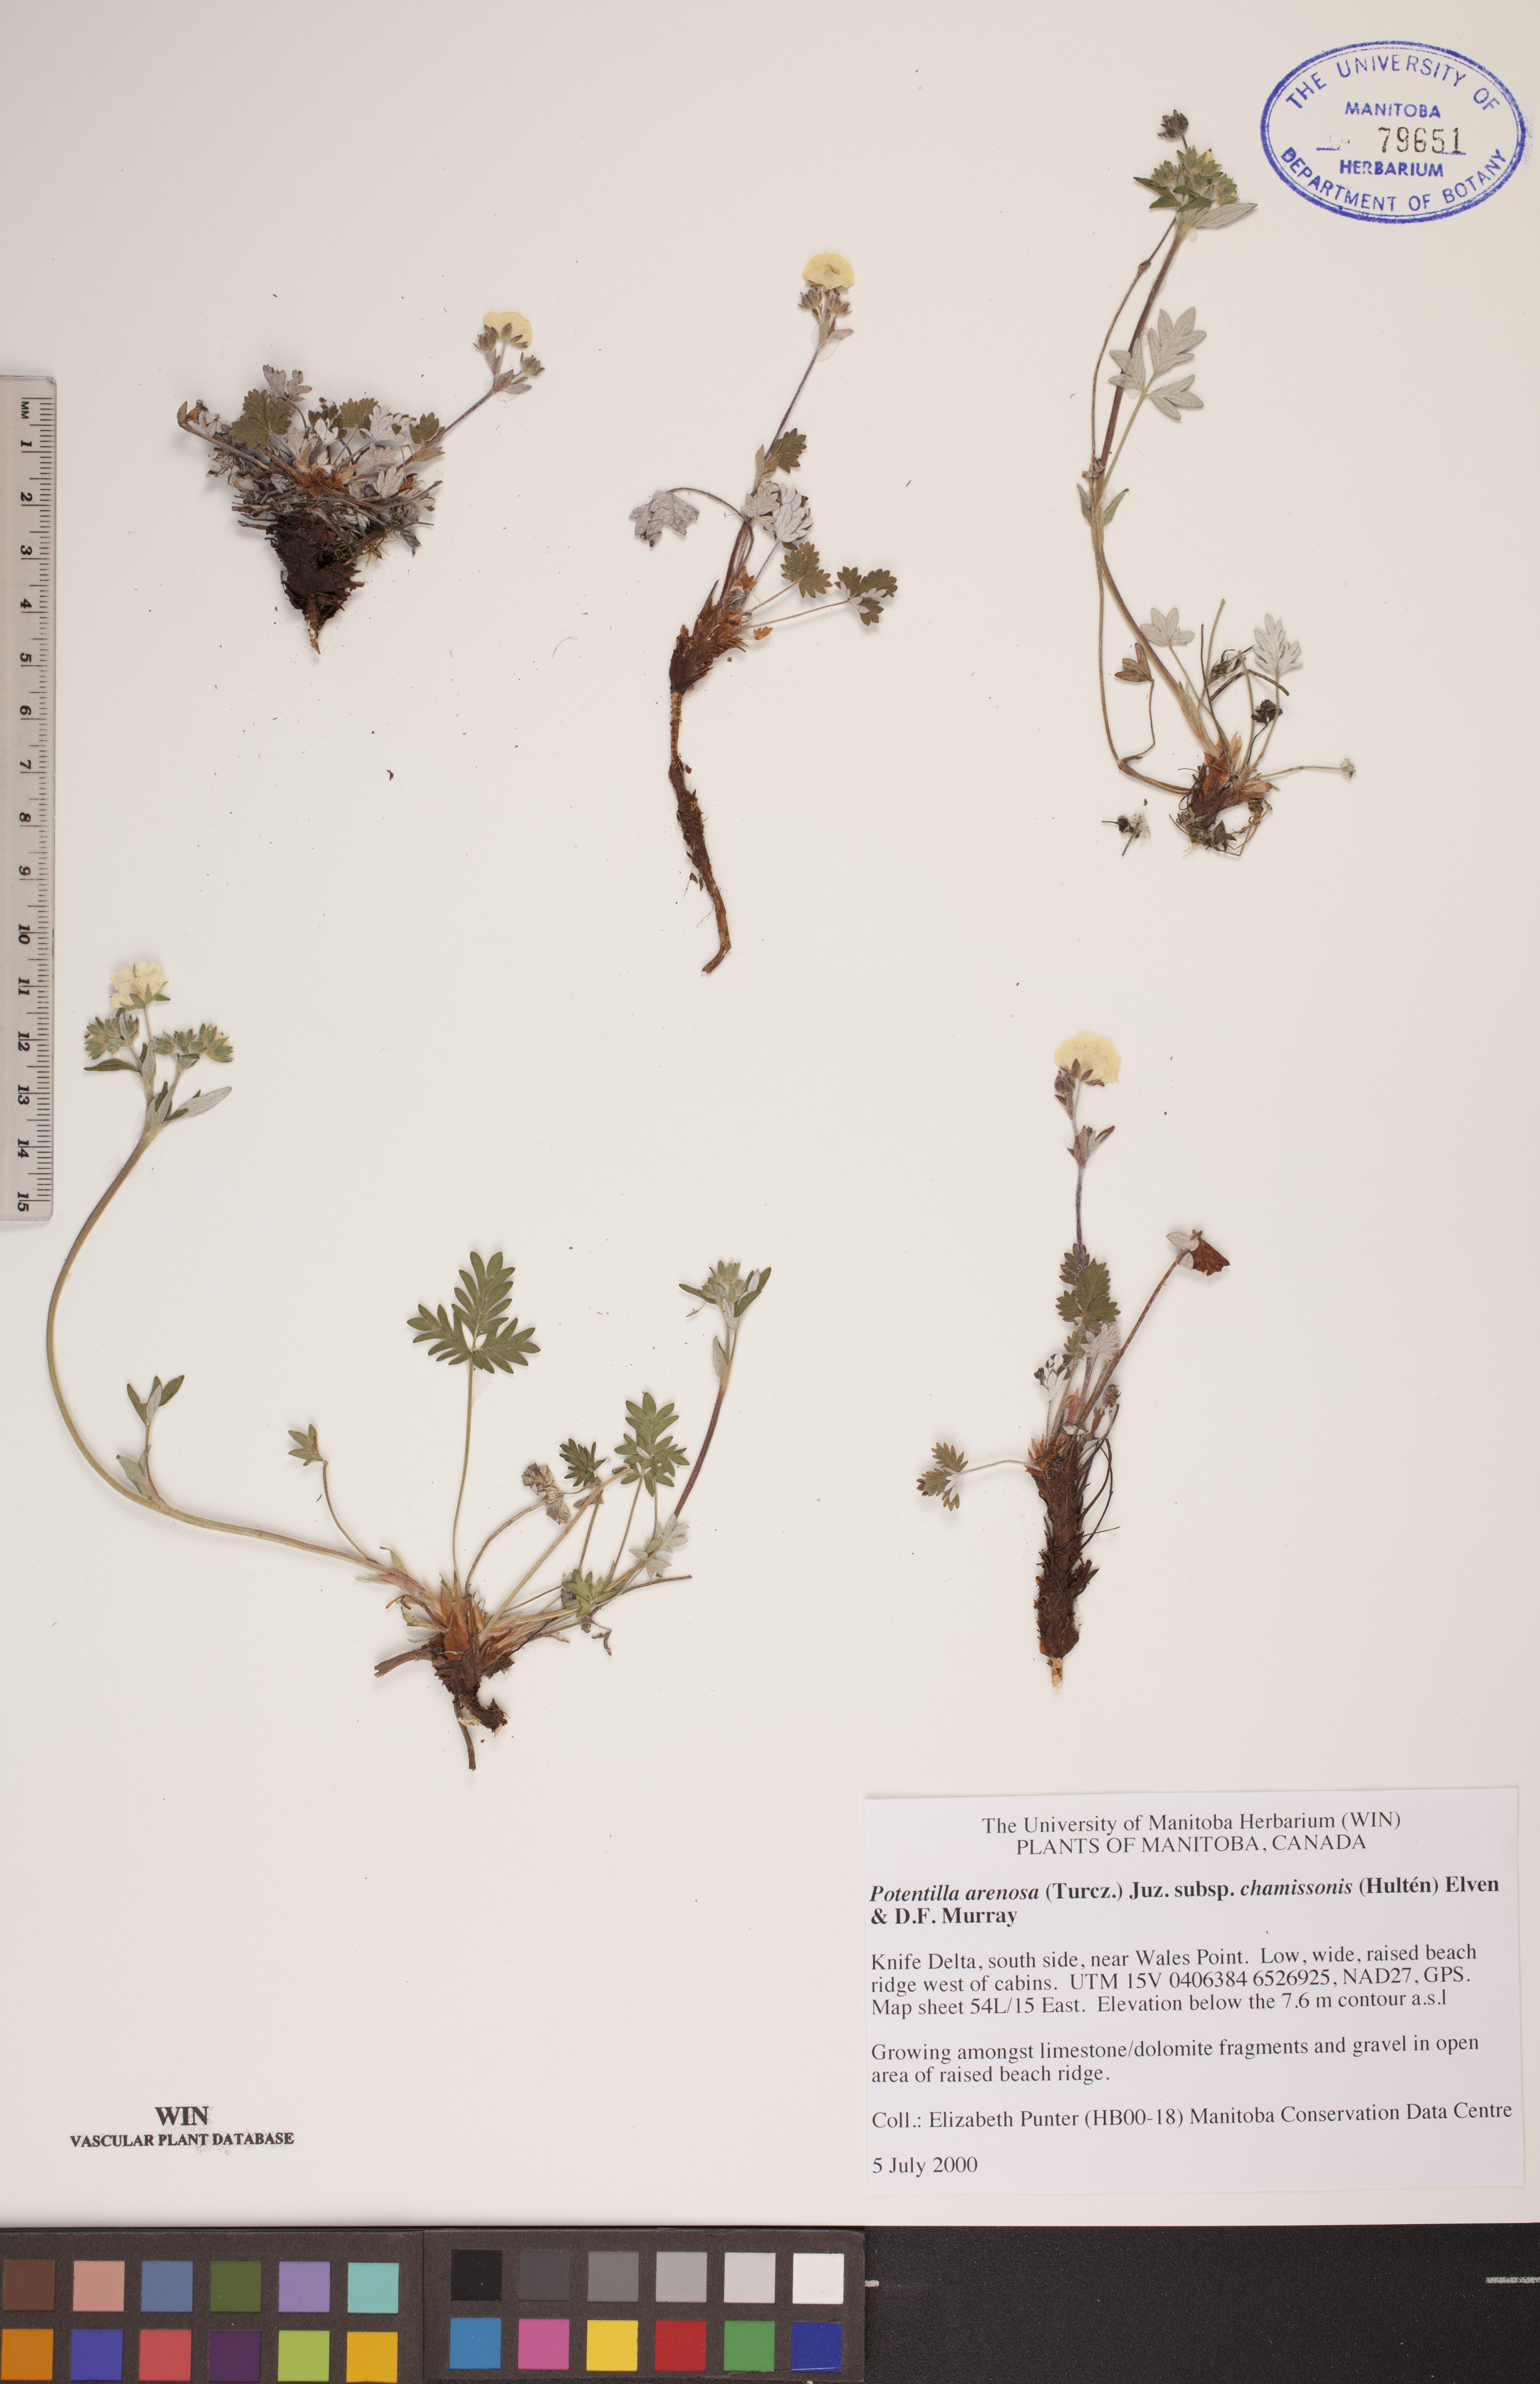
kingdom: Plantae
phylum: Tracheophyta
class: Magnoliopsida
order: Rosales
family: Rosaceae
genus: Potentilla
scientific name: Potentilla chamissonis
